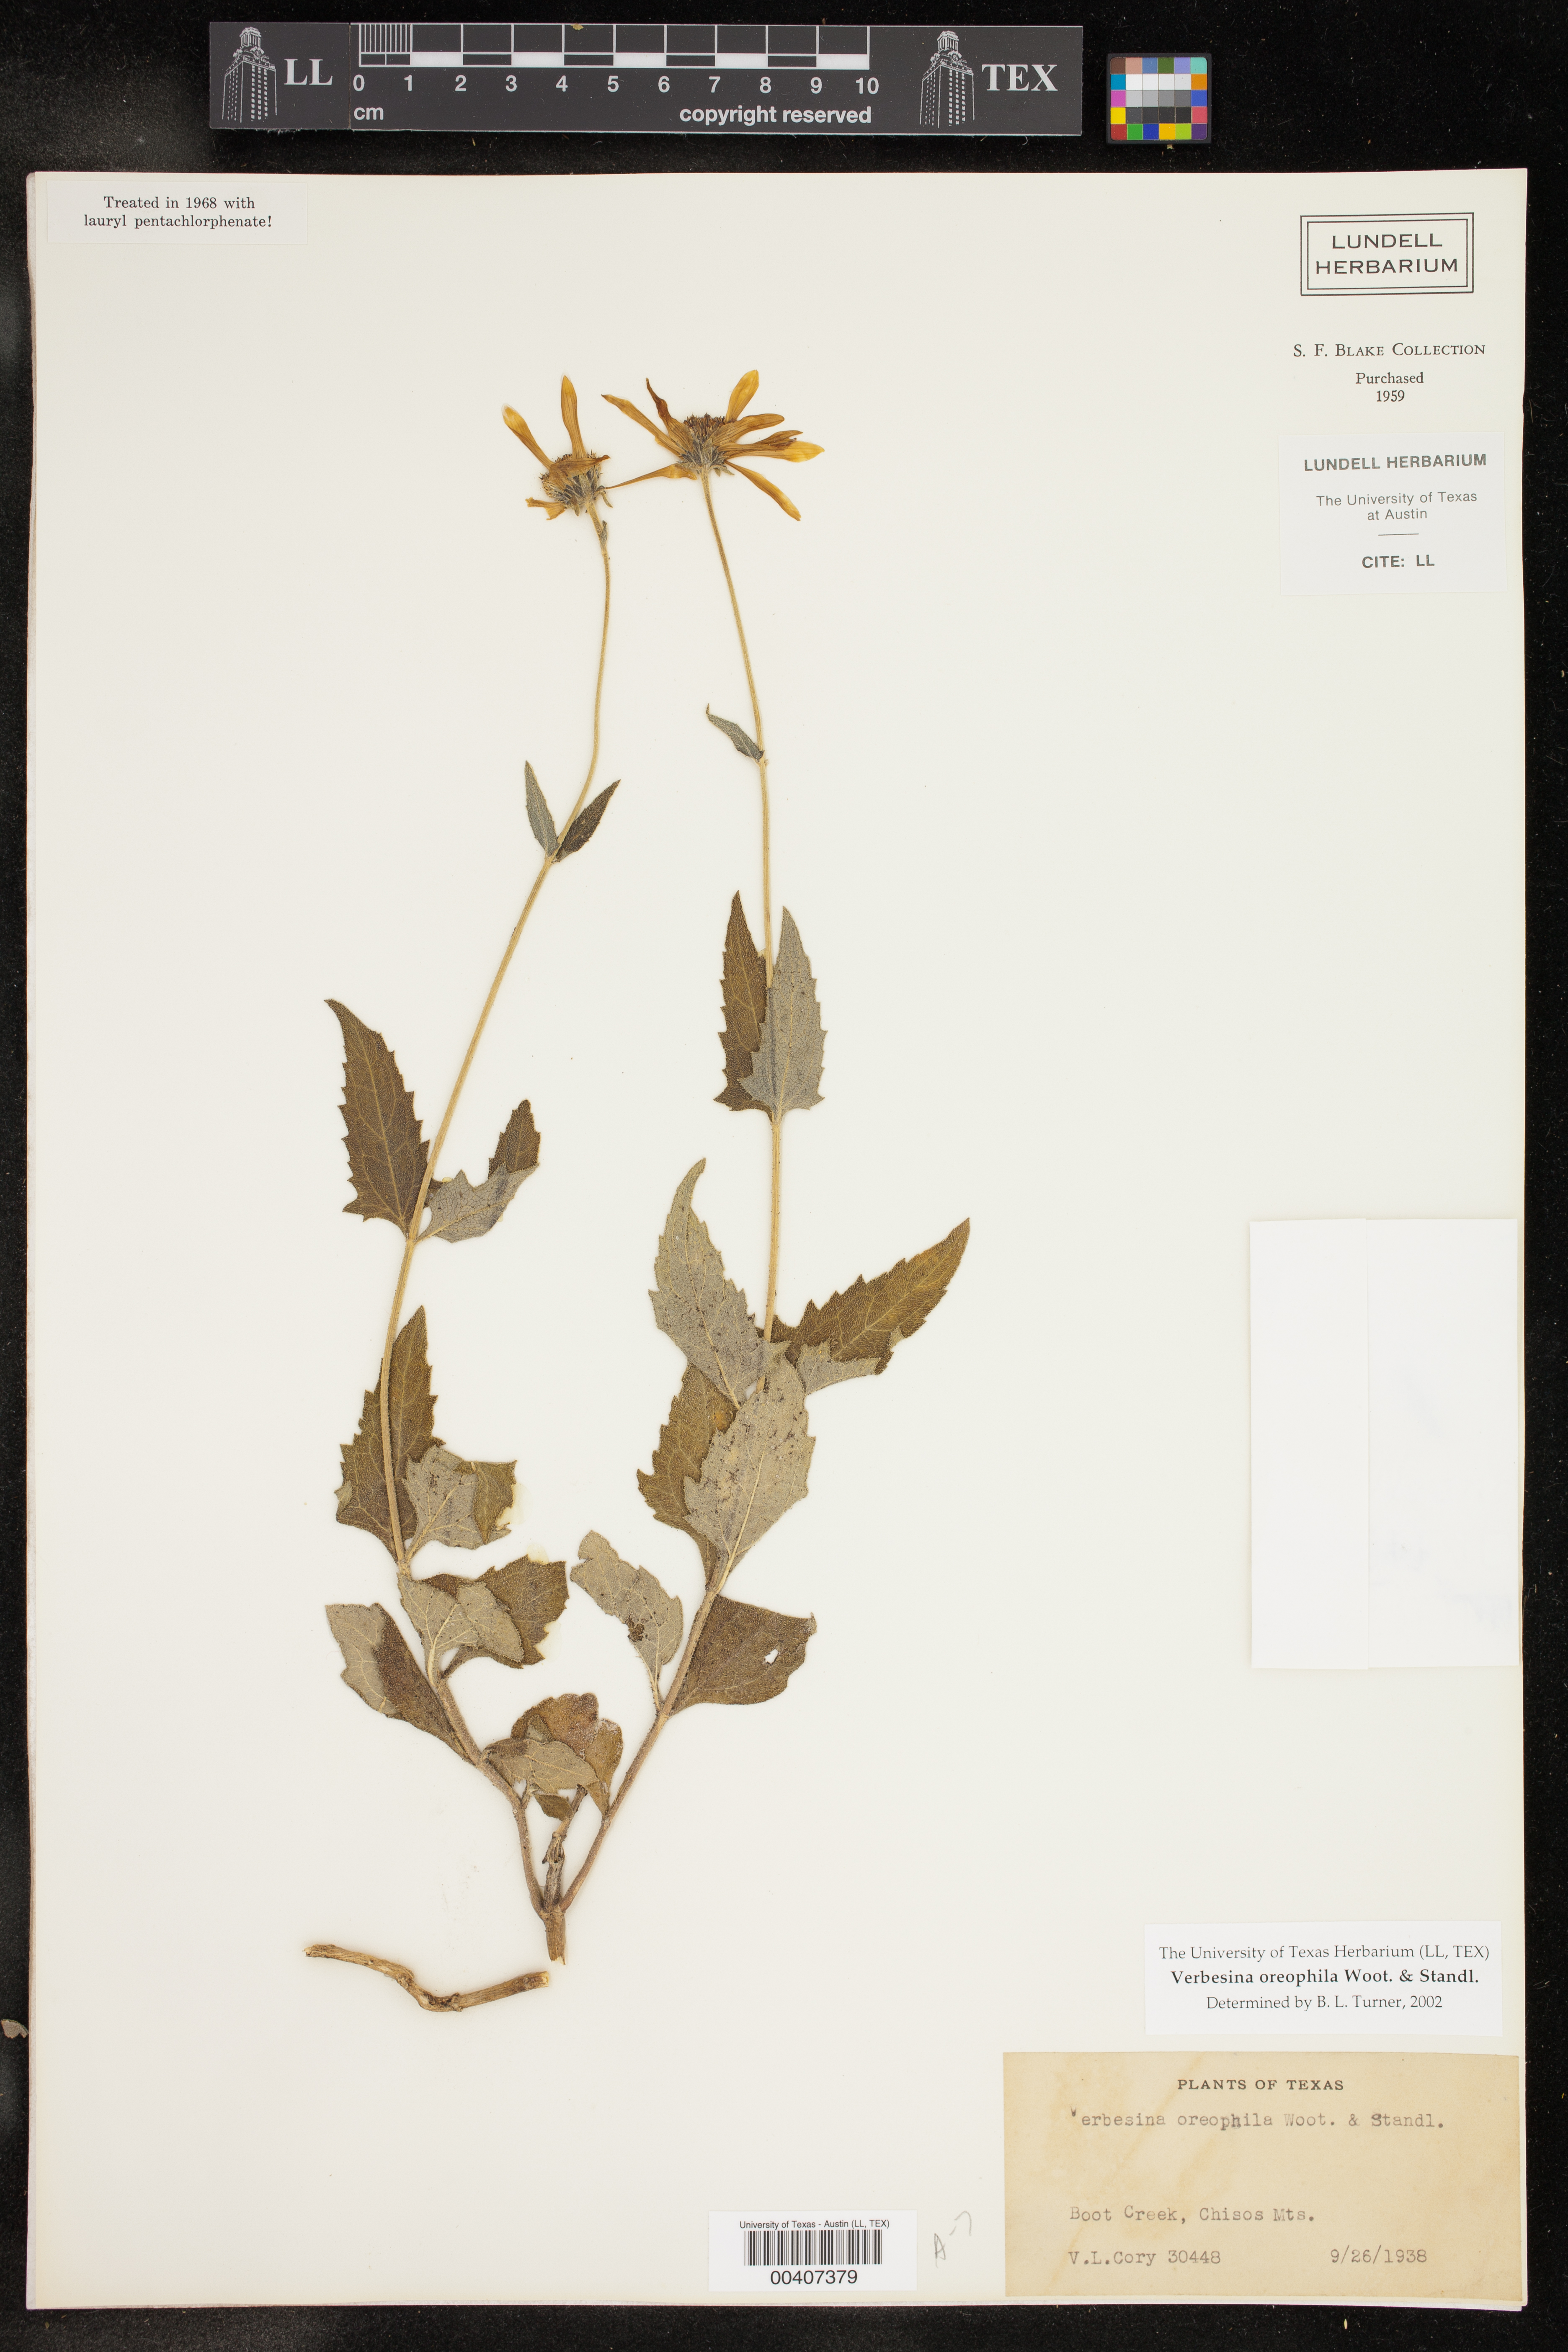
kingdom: Plantae
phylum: Tracheophyta
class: Magnoliopsida
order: Asterales
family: Asteraceae
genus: Verbesina
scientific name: Verbesina oreophila
